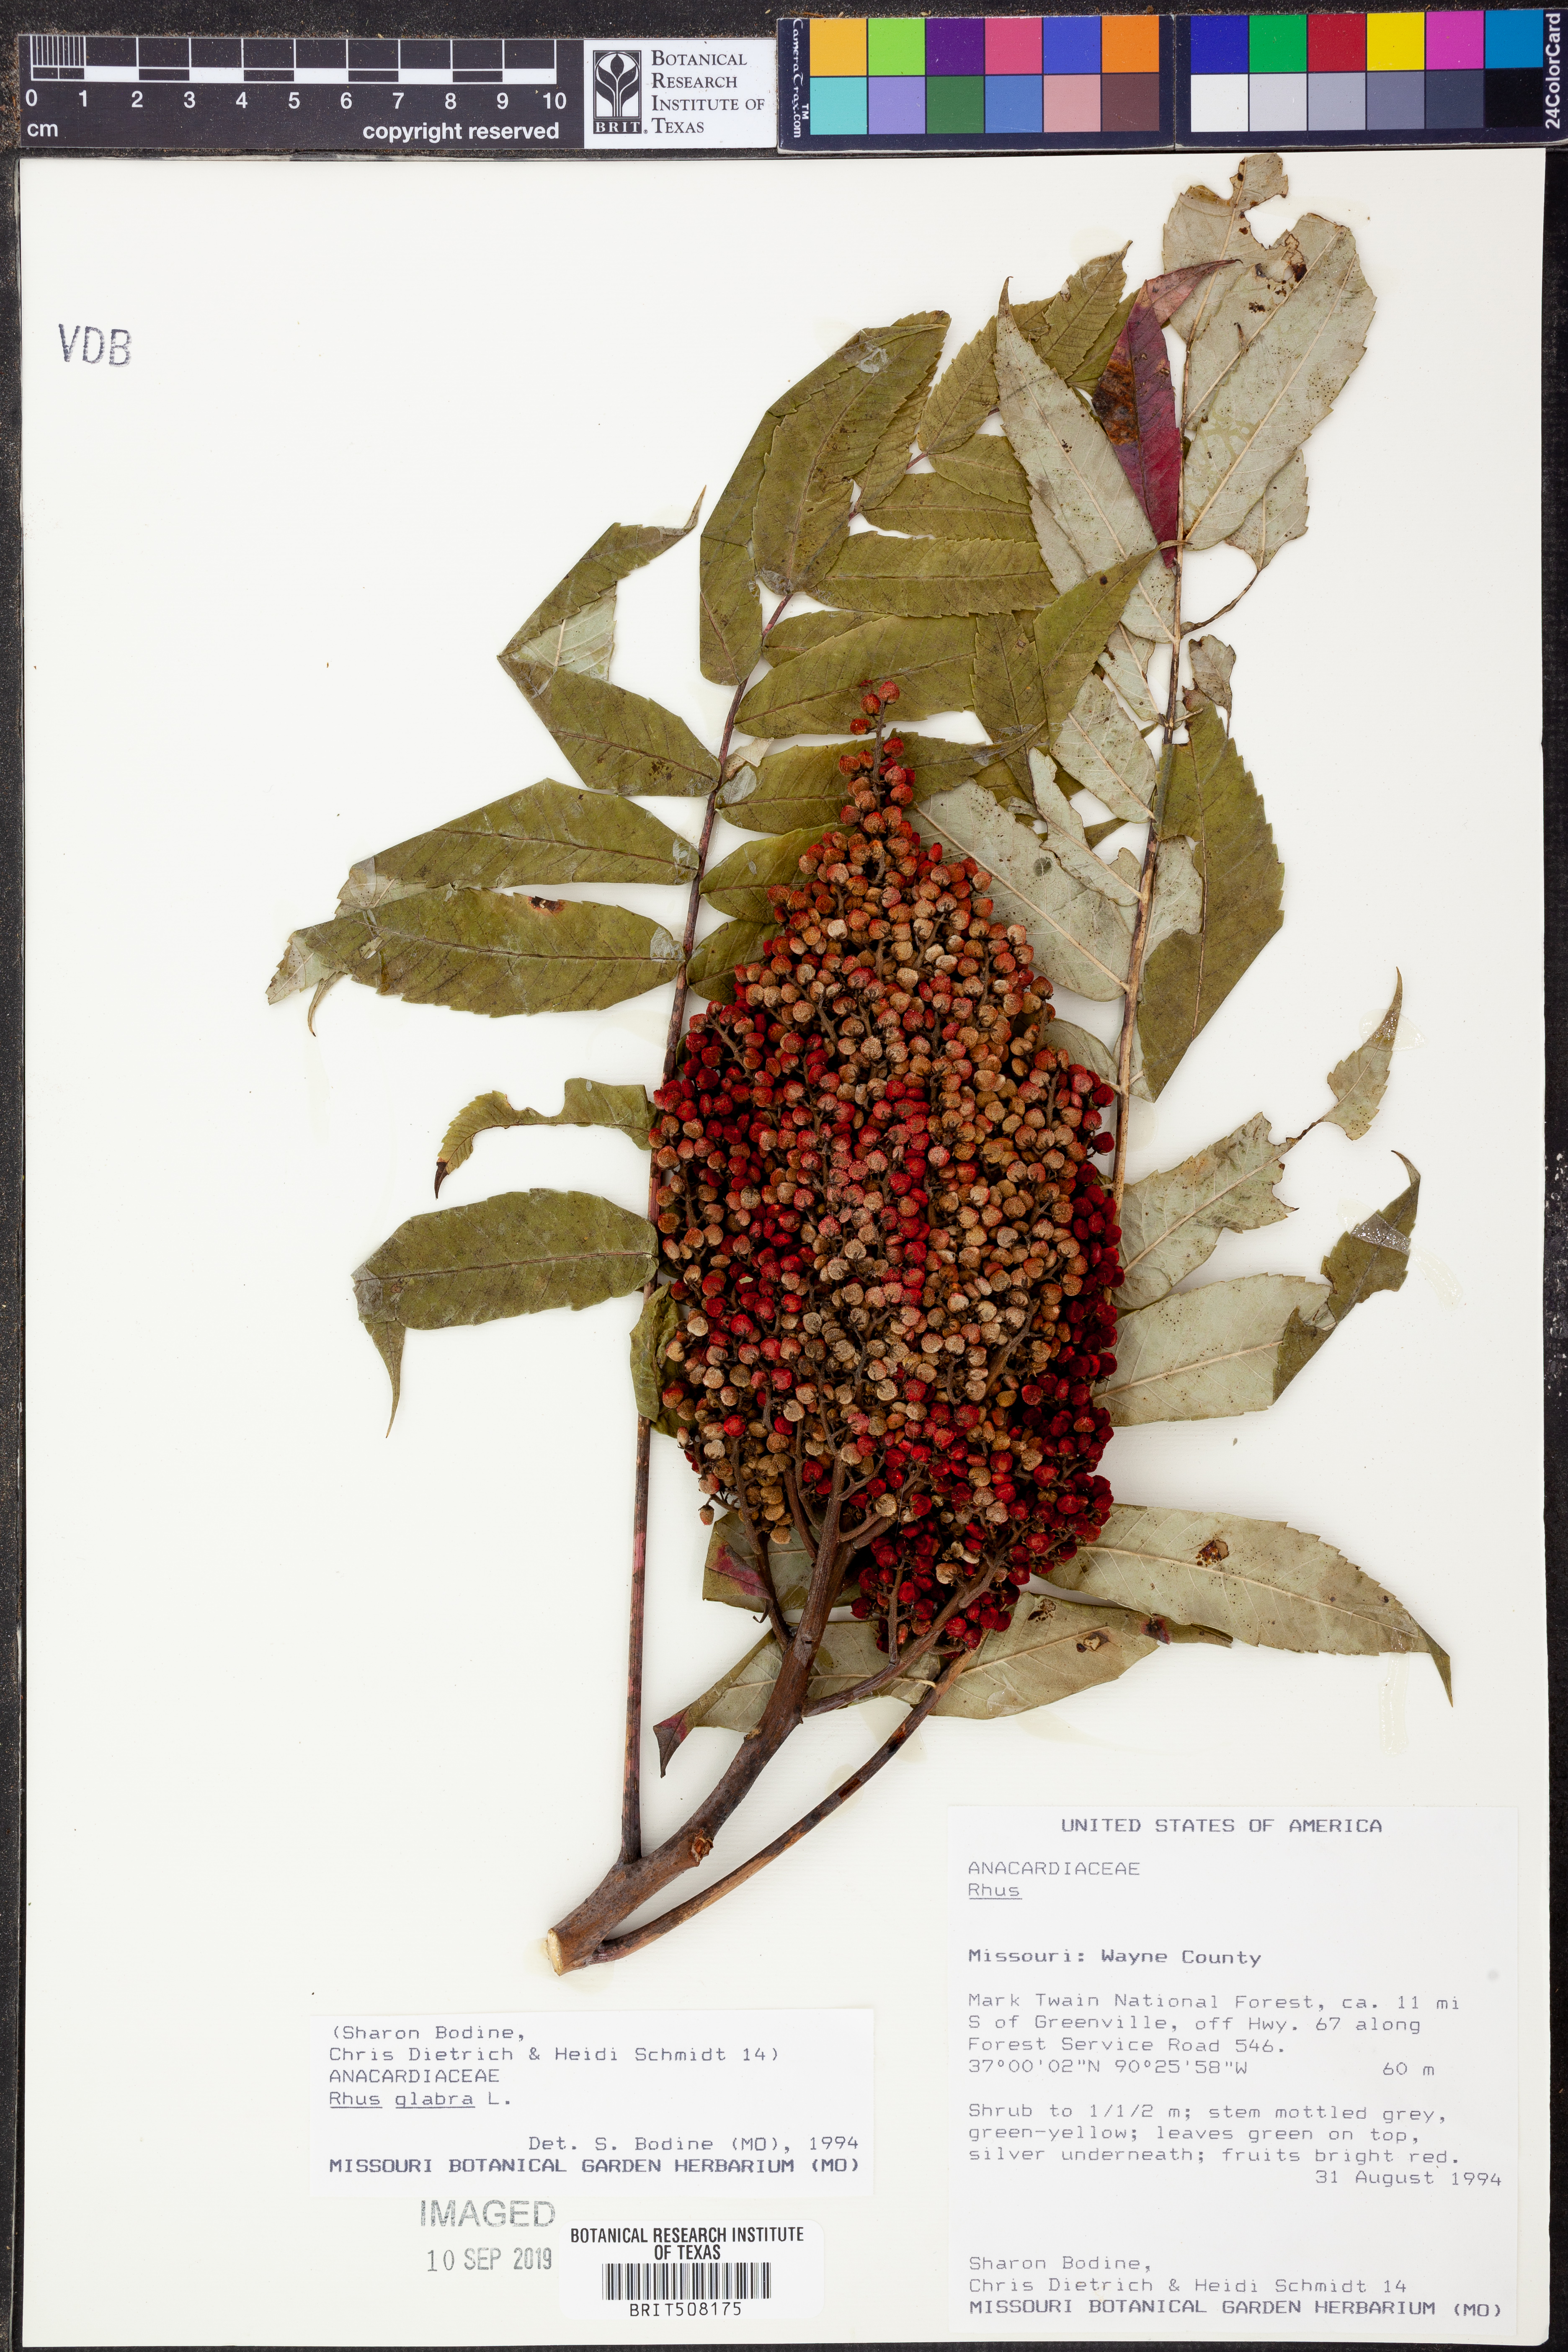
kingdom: Plantae
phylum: Tracheophyta
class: Magnoliopsida
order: Sapindales
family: Anacardiaceae
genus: Rhus
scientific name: Rhus glabra
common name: Scarlet sumac
